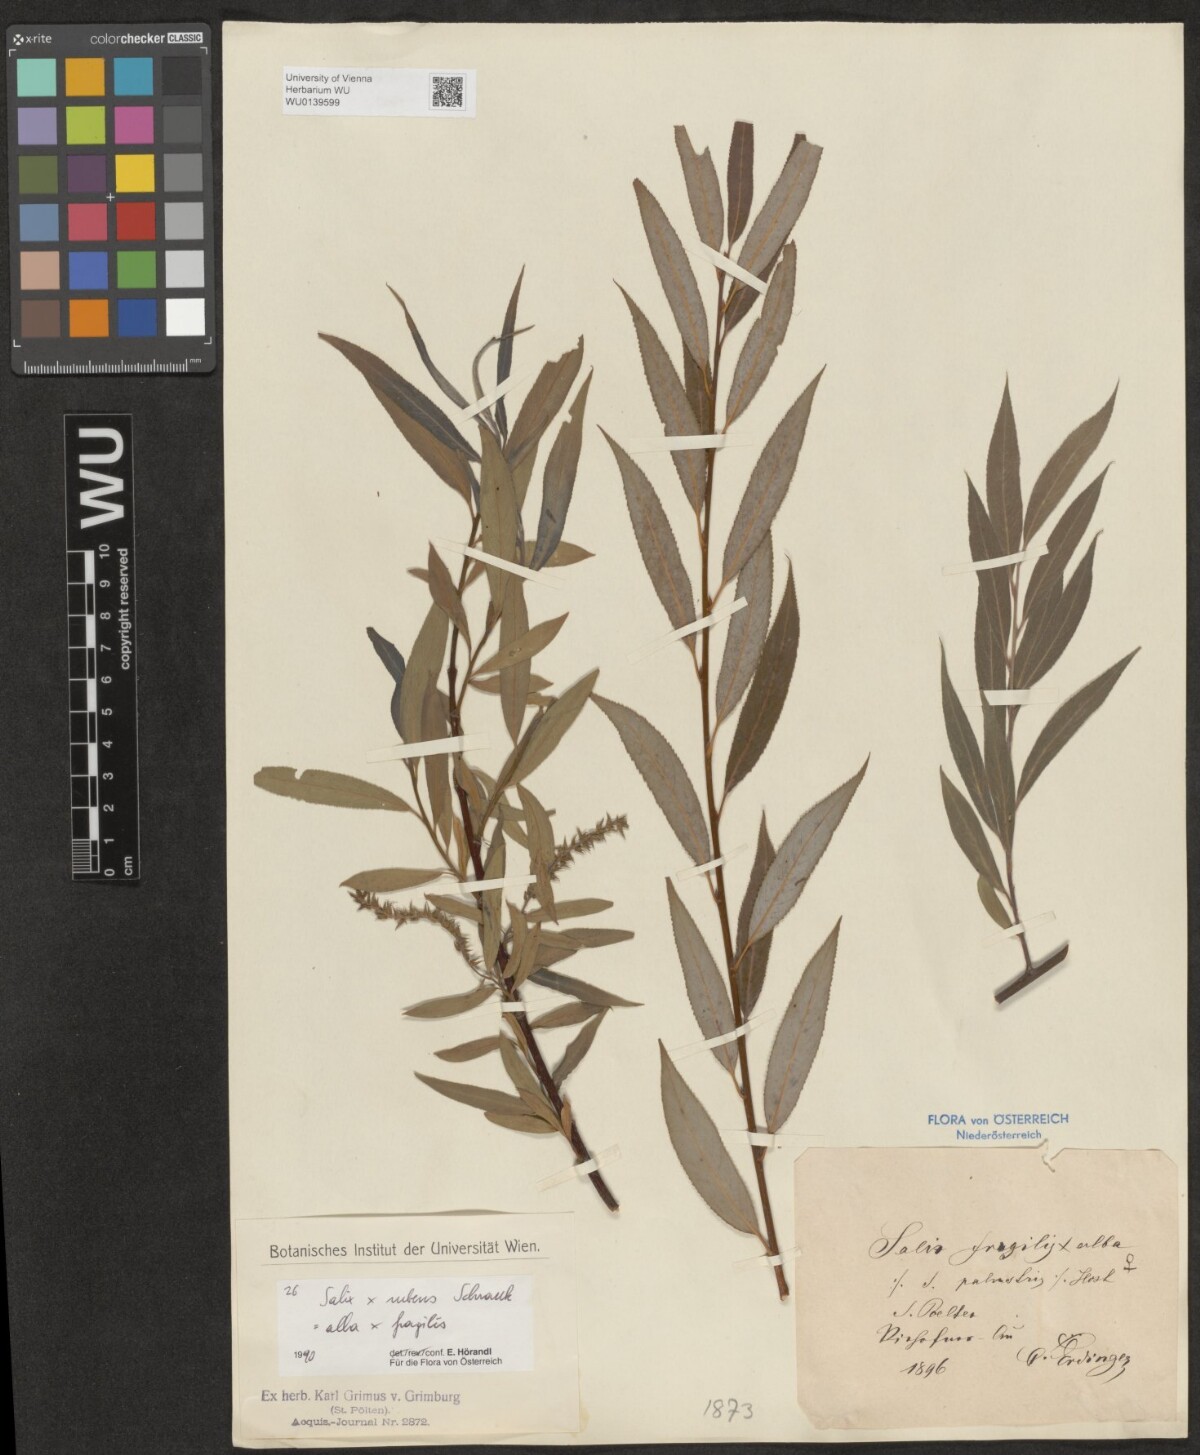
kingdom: Plantae
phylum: Tracheophyta
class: Magnoliopsida
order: Malpighiales
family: Salicaceae
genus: Salix
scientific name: Salix rubens
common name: Hybrid crack willow
